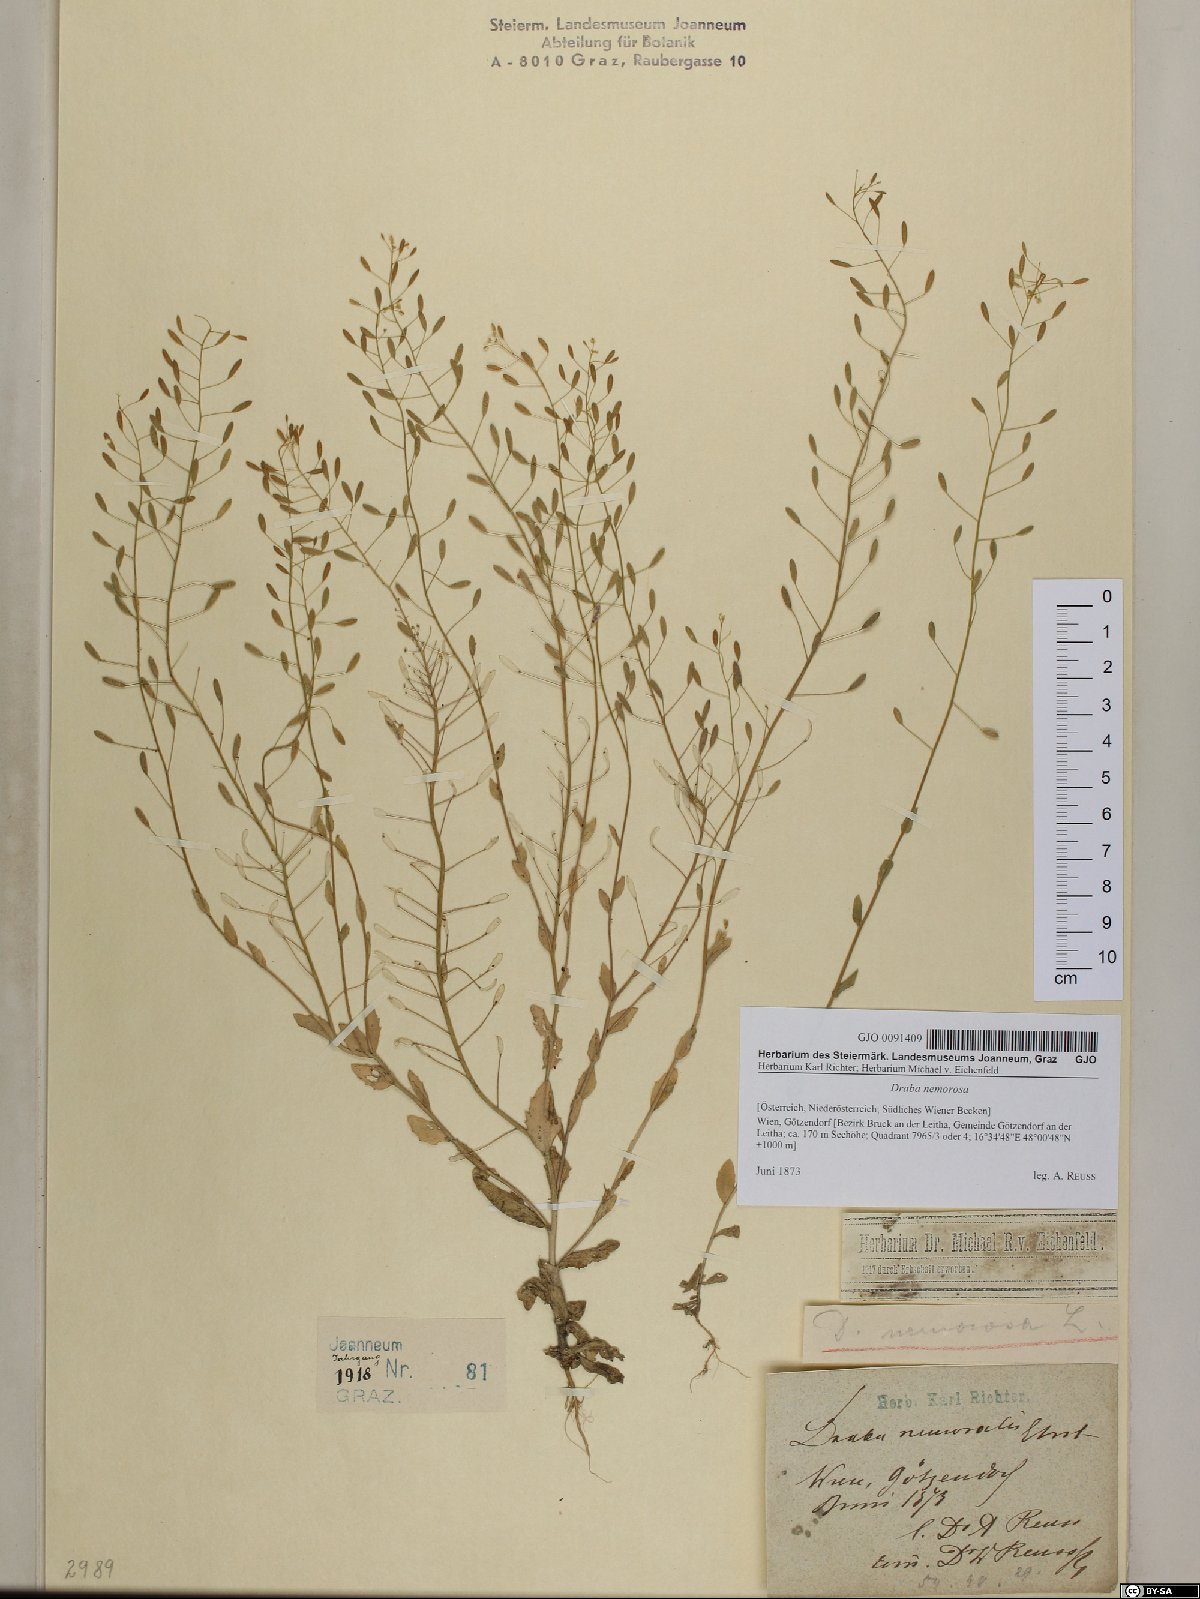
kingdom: Plantae
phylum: Tracheophyta
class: Magnoliopsida
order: Brassicales
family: Brassicaceae
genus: Draba
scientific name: Draba nemorosa
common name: Wood whitlow-grass
